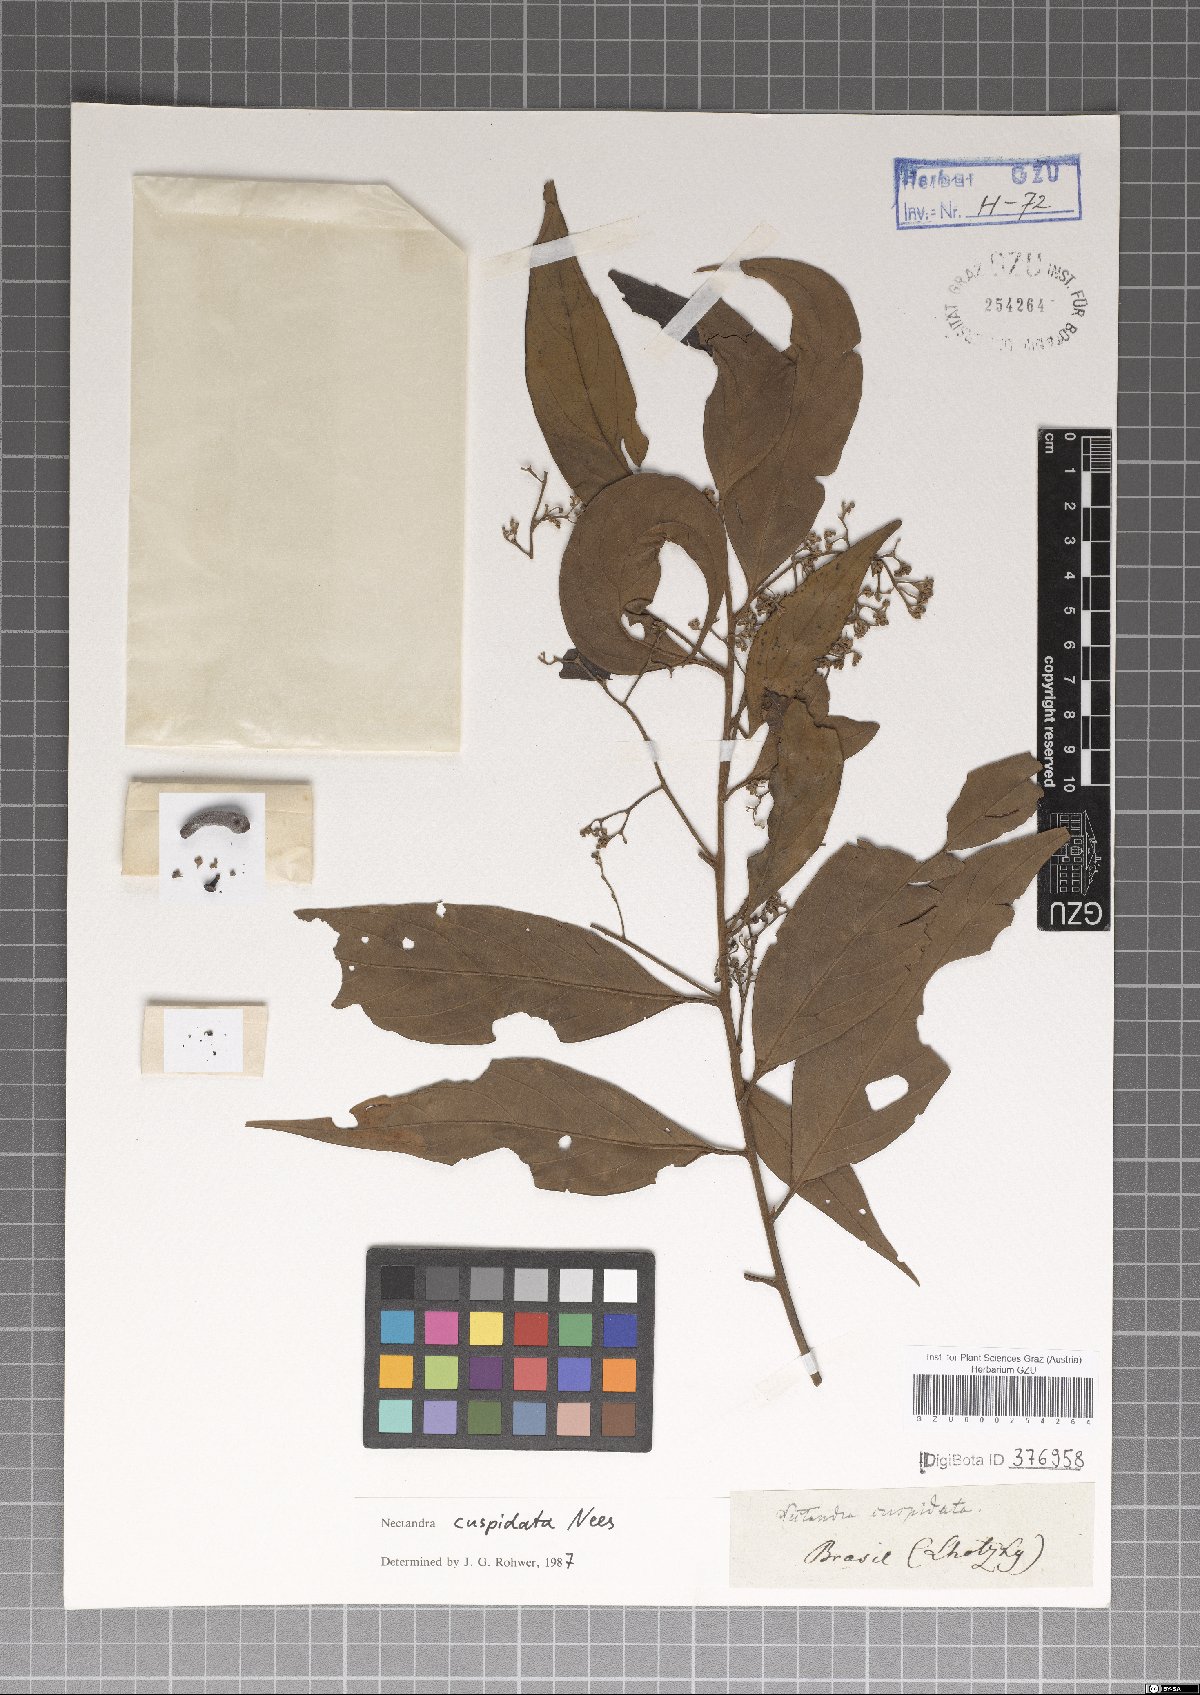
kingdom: Plantae
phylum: Tracheophyta
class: Magnoliopsida
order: Laurales
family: Lauraceae
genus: Nectandra
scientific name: Nectandra cuspidata
